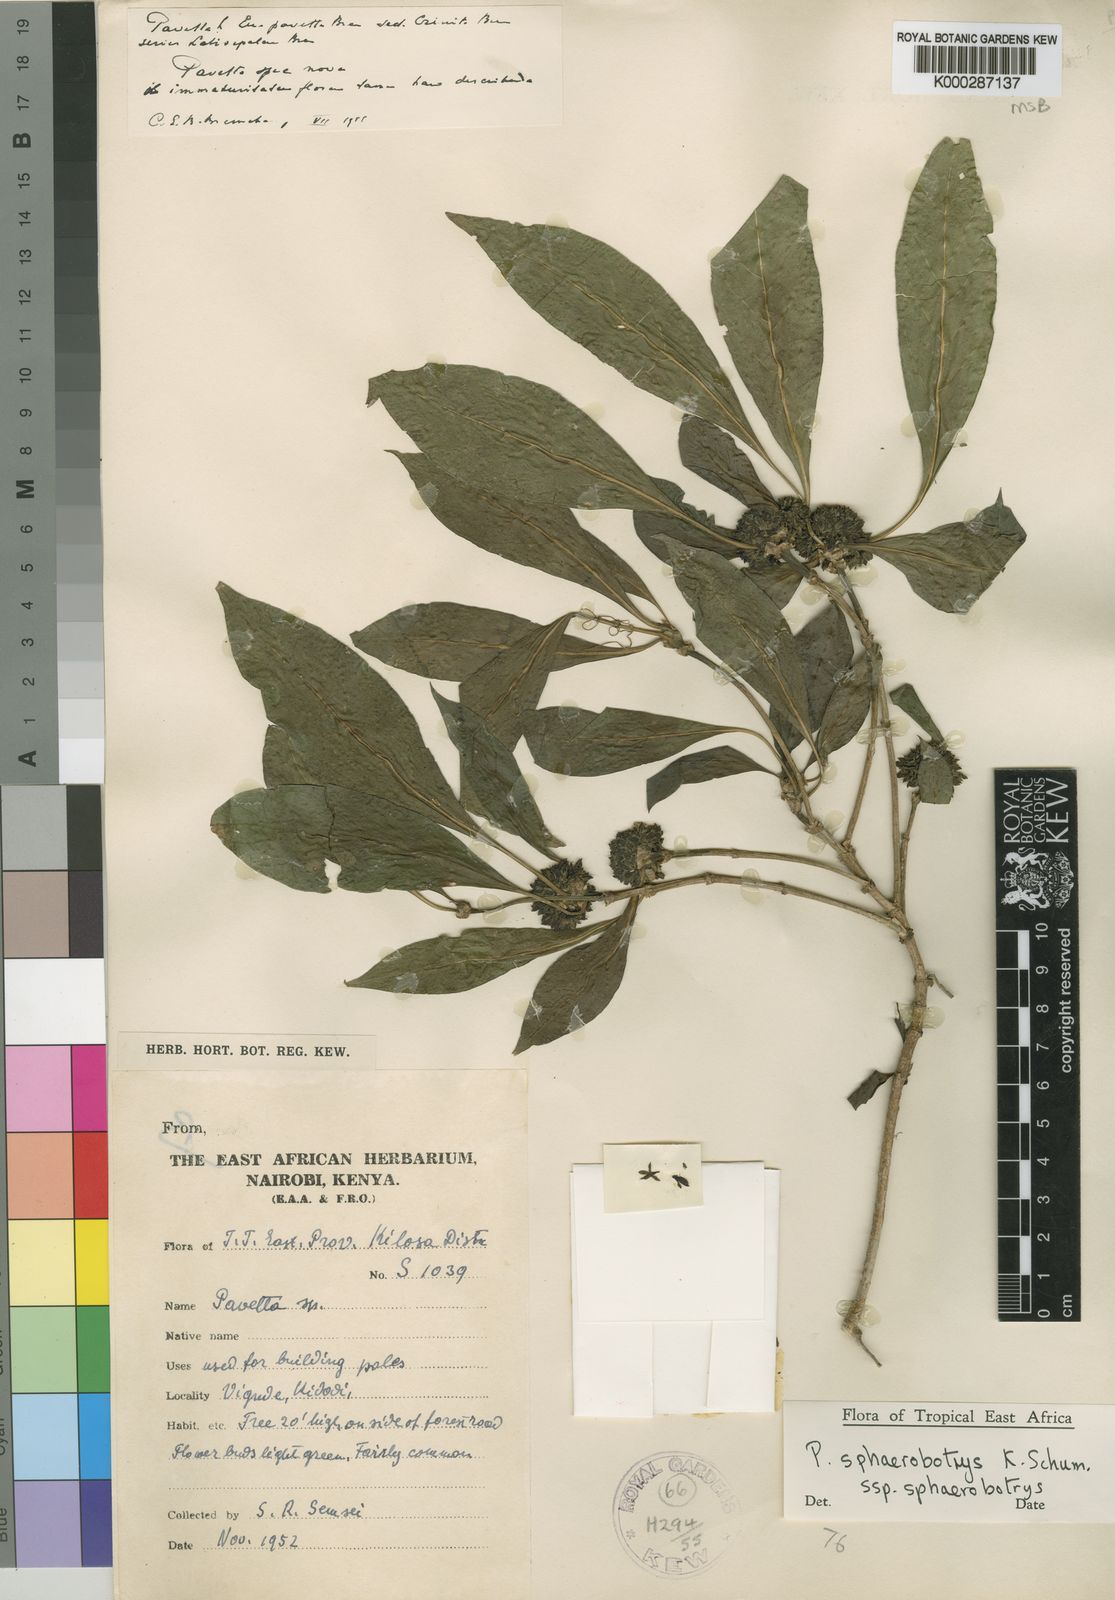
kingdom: Plantae
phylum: Tracheophyta
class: Magnoliopsida
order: Gentianales
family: Rubiaceae
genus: Pavetta
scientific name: Pavetta sphaerobotrys
